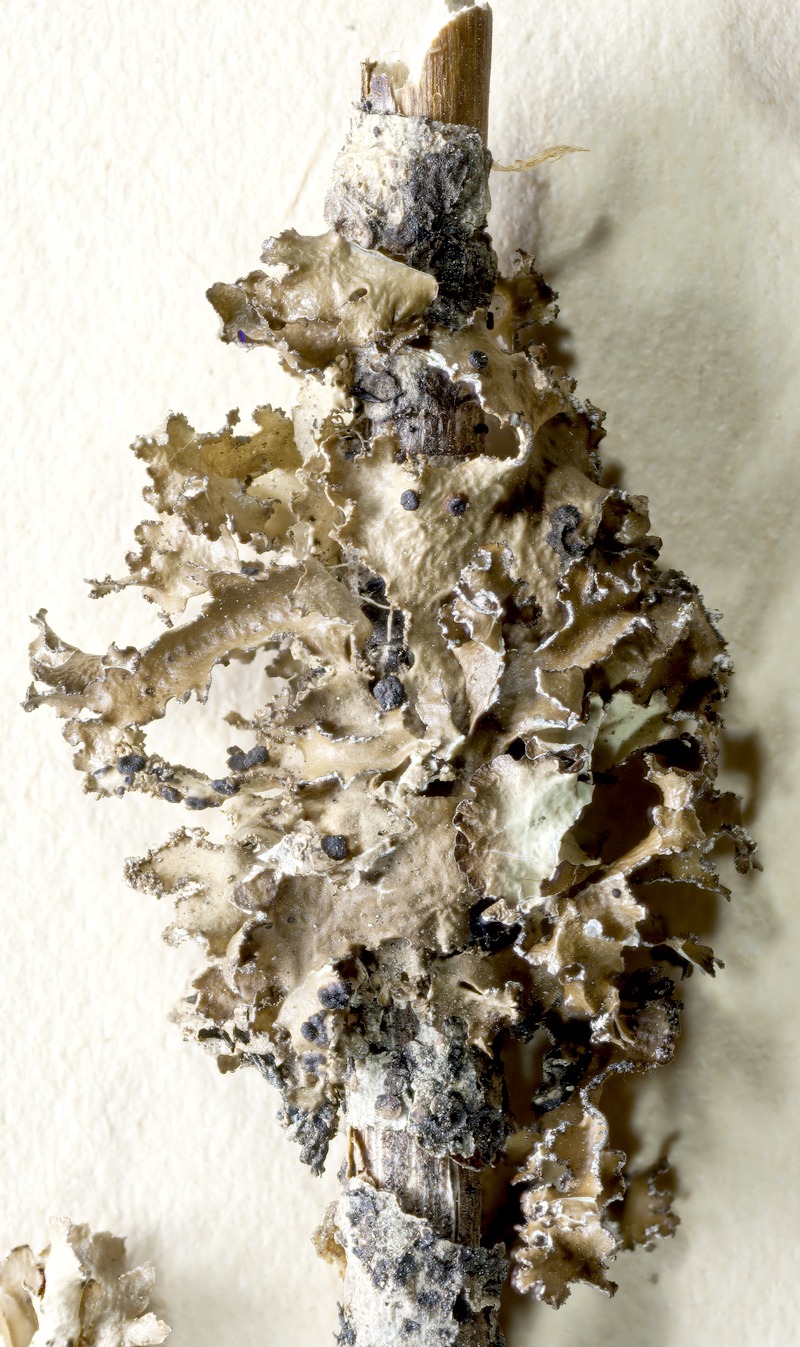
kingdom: Fungi
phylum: Basidiomycota
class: Tremellomycetes
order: Tremellales
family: Tremellaceae
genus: Tremella
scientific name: Tremella cetrariicola
